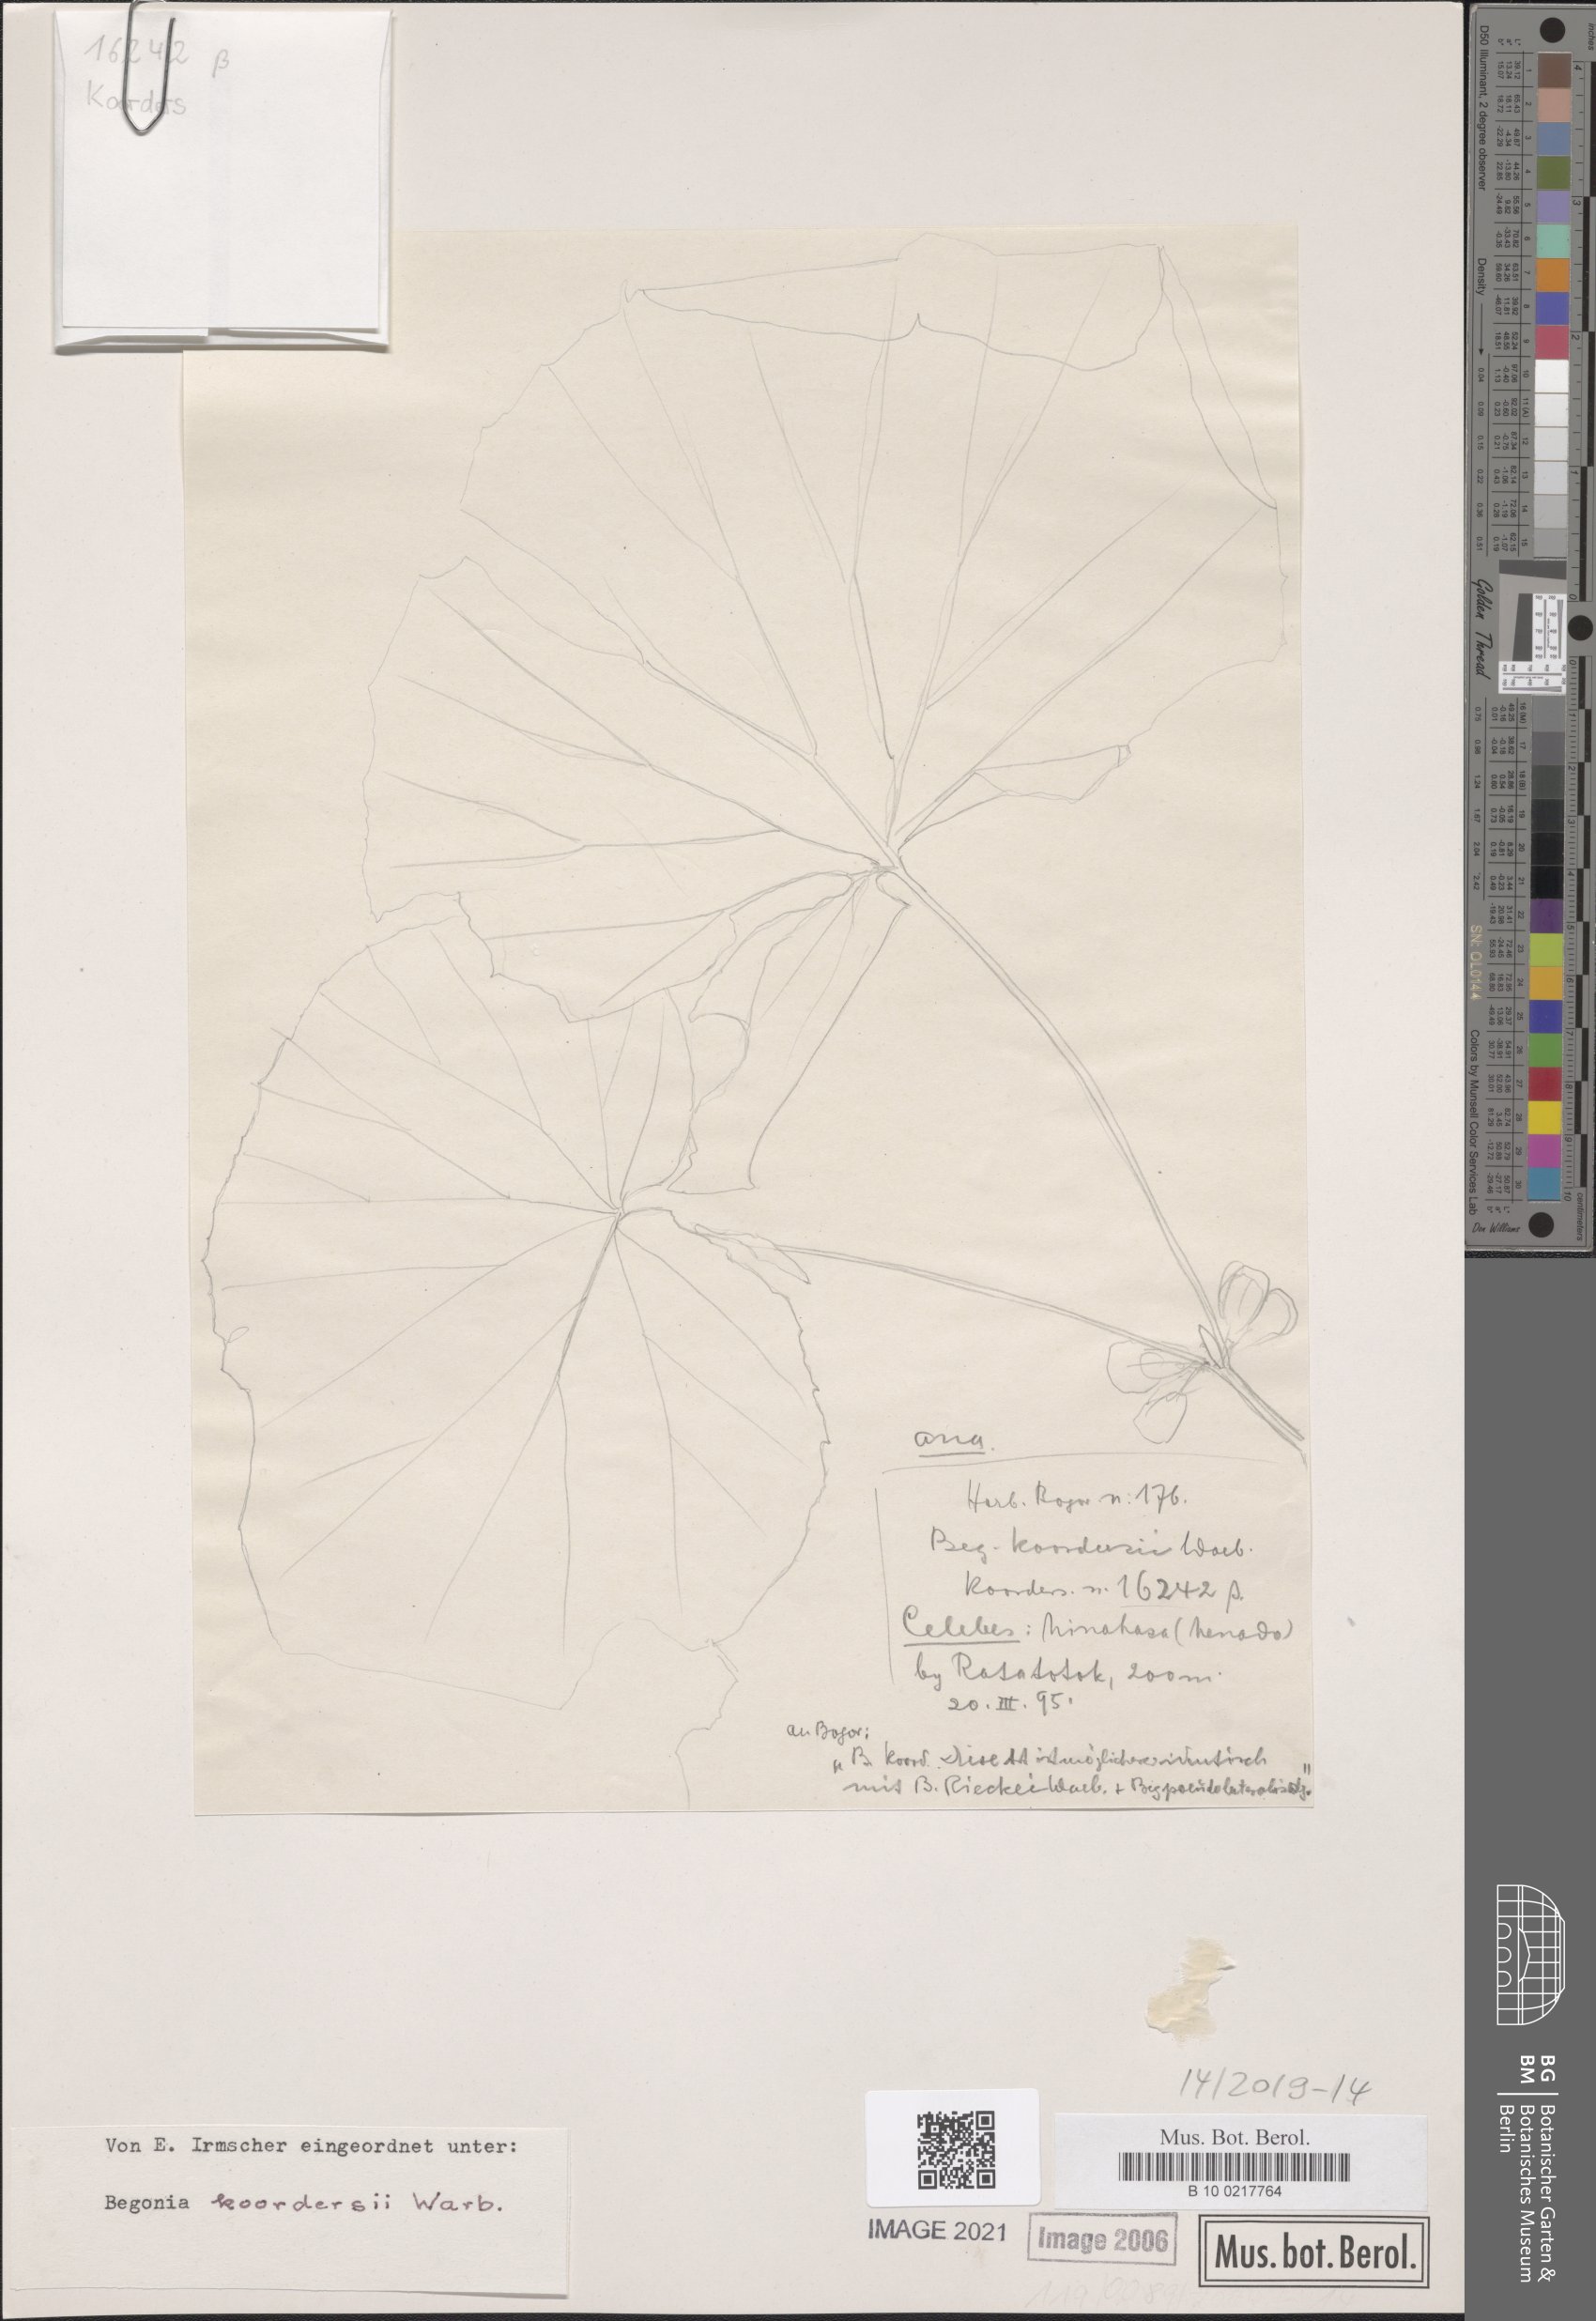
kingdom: Plantae
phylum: Tracheophyta
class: Magnoliopsida
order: Cucurbitales
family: Begoniaceae
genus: Begonia
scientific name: Begonia koordersii
